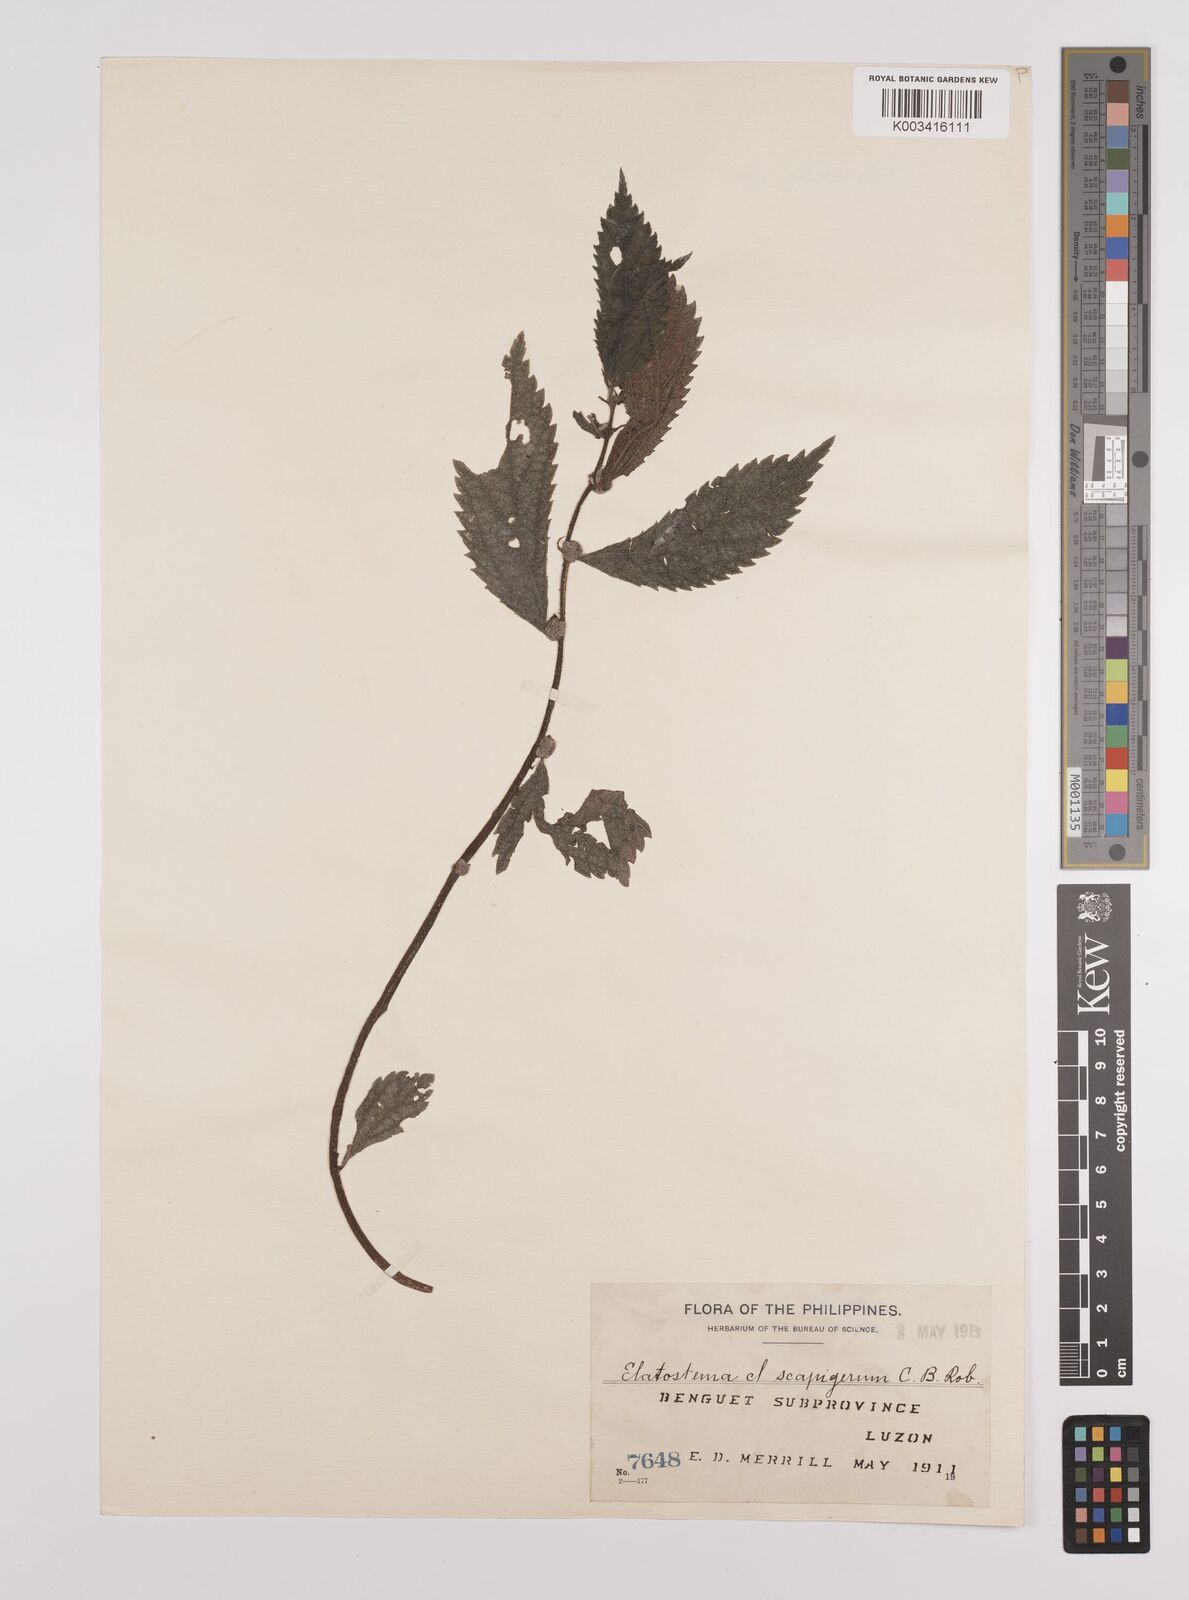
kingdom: Plantae
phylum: Tracheophyta
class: Magnoliopsida
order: Rosales
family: Urticaceae
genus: Elatostema
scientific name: Elatostema scapigerum
